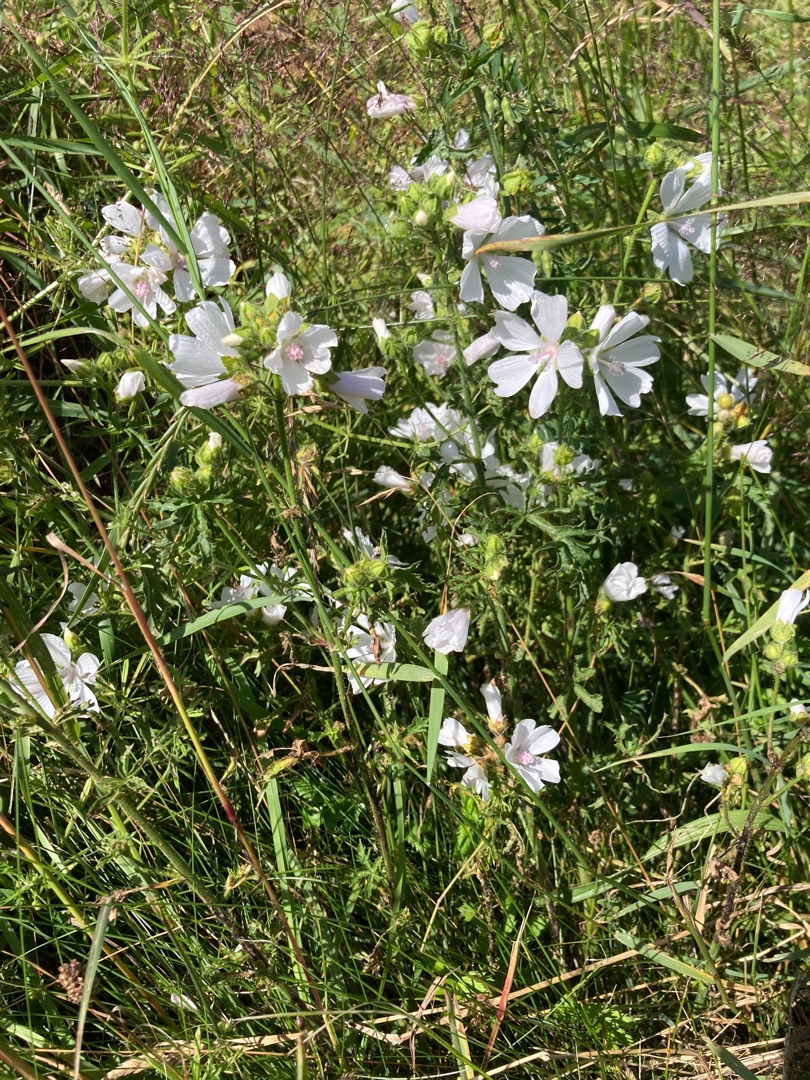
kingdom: Plantae
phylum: Tracheophyta
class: Magnoliopsida
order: Malvales
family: Malvaceae
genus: Malva
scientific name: Malva
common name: Katostslægten
